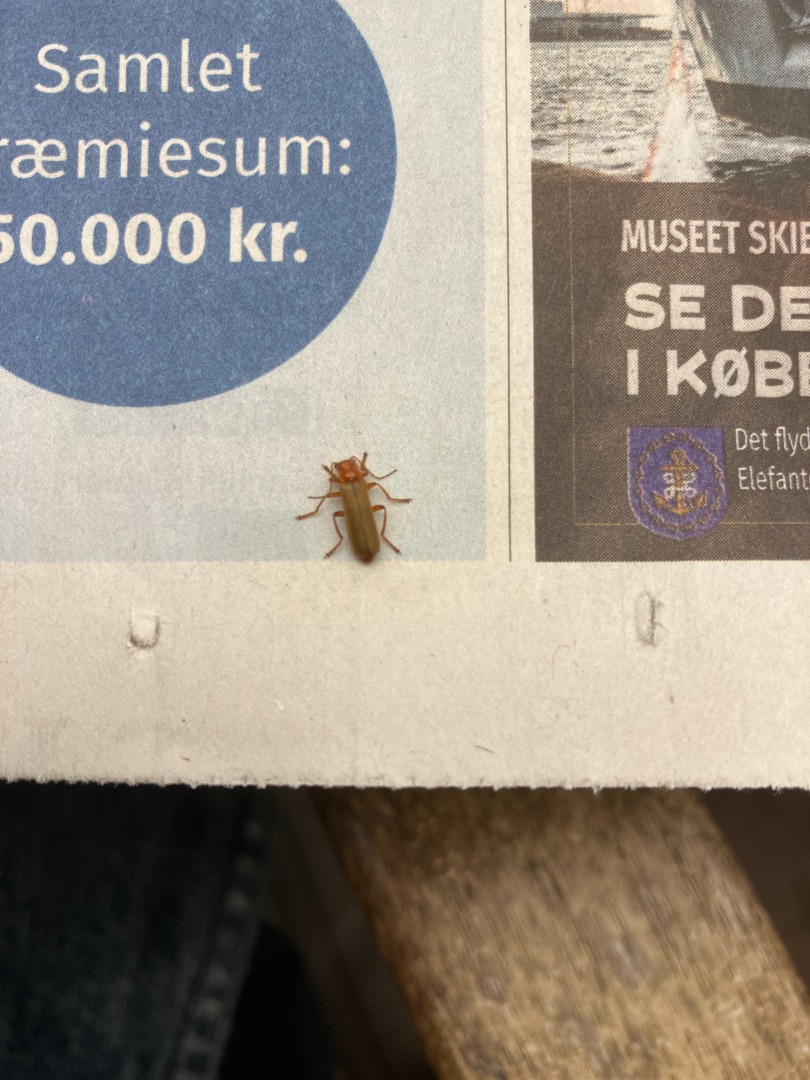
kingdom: Animalia
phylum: Arthropoda
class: Insecta
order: Coleoptera
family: Cantharidae
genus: Cantharis
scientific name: Cantharis
